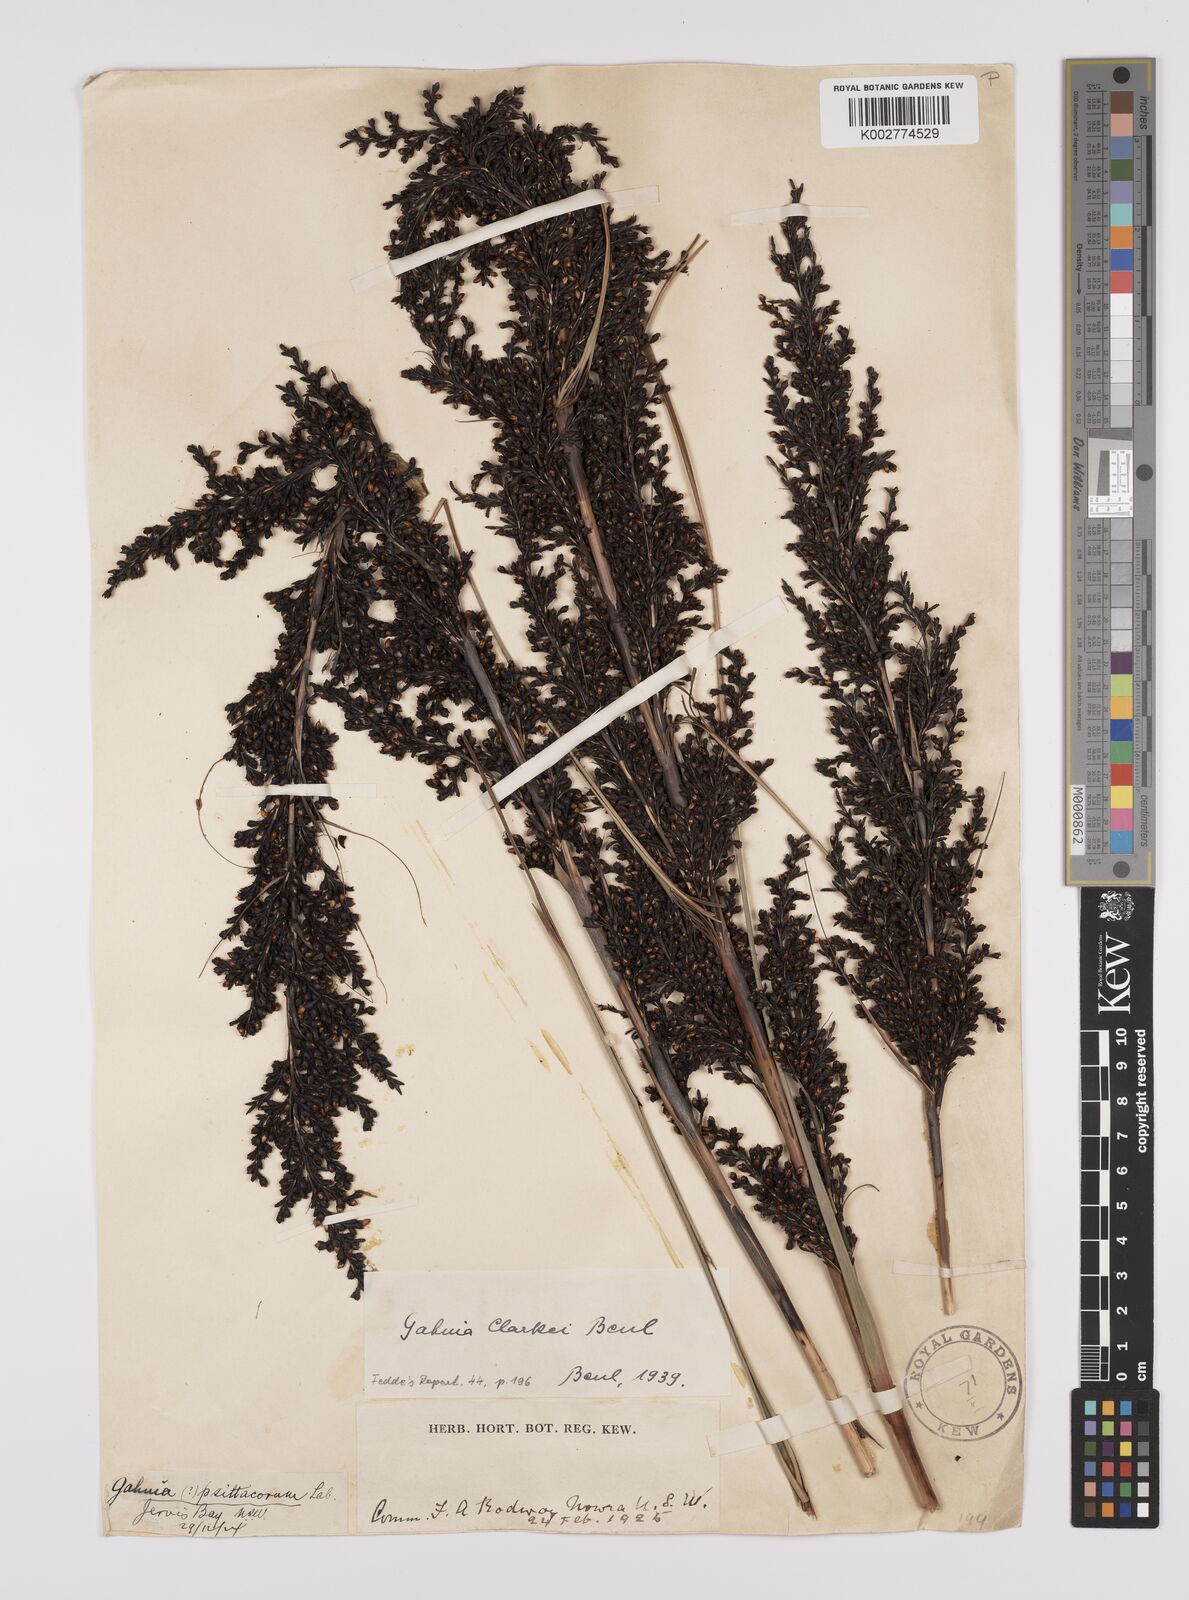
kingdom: Plantae
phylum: Tracheophyta
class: Liliopsida
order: Poales
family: Cyperaceae
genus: Gahnia
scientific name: Gahnia clarkei
